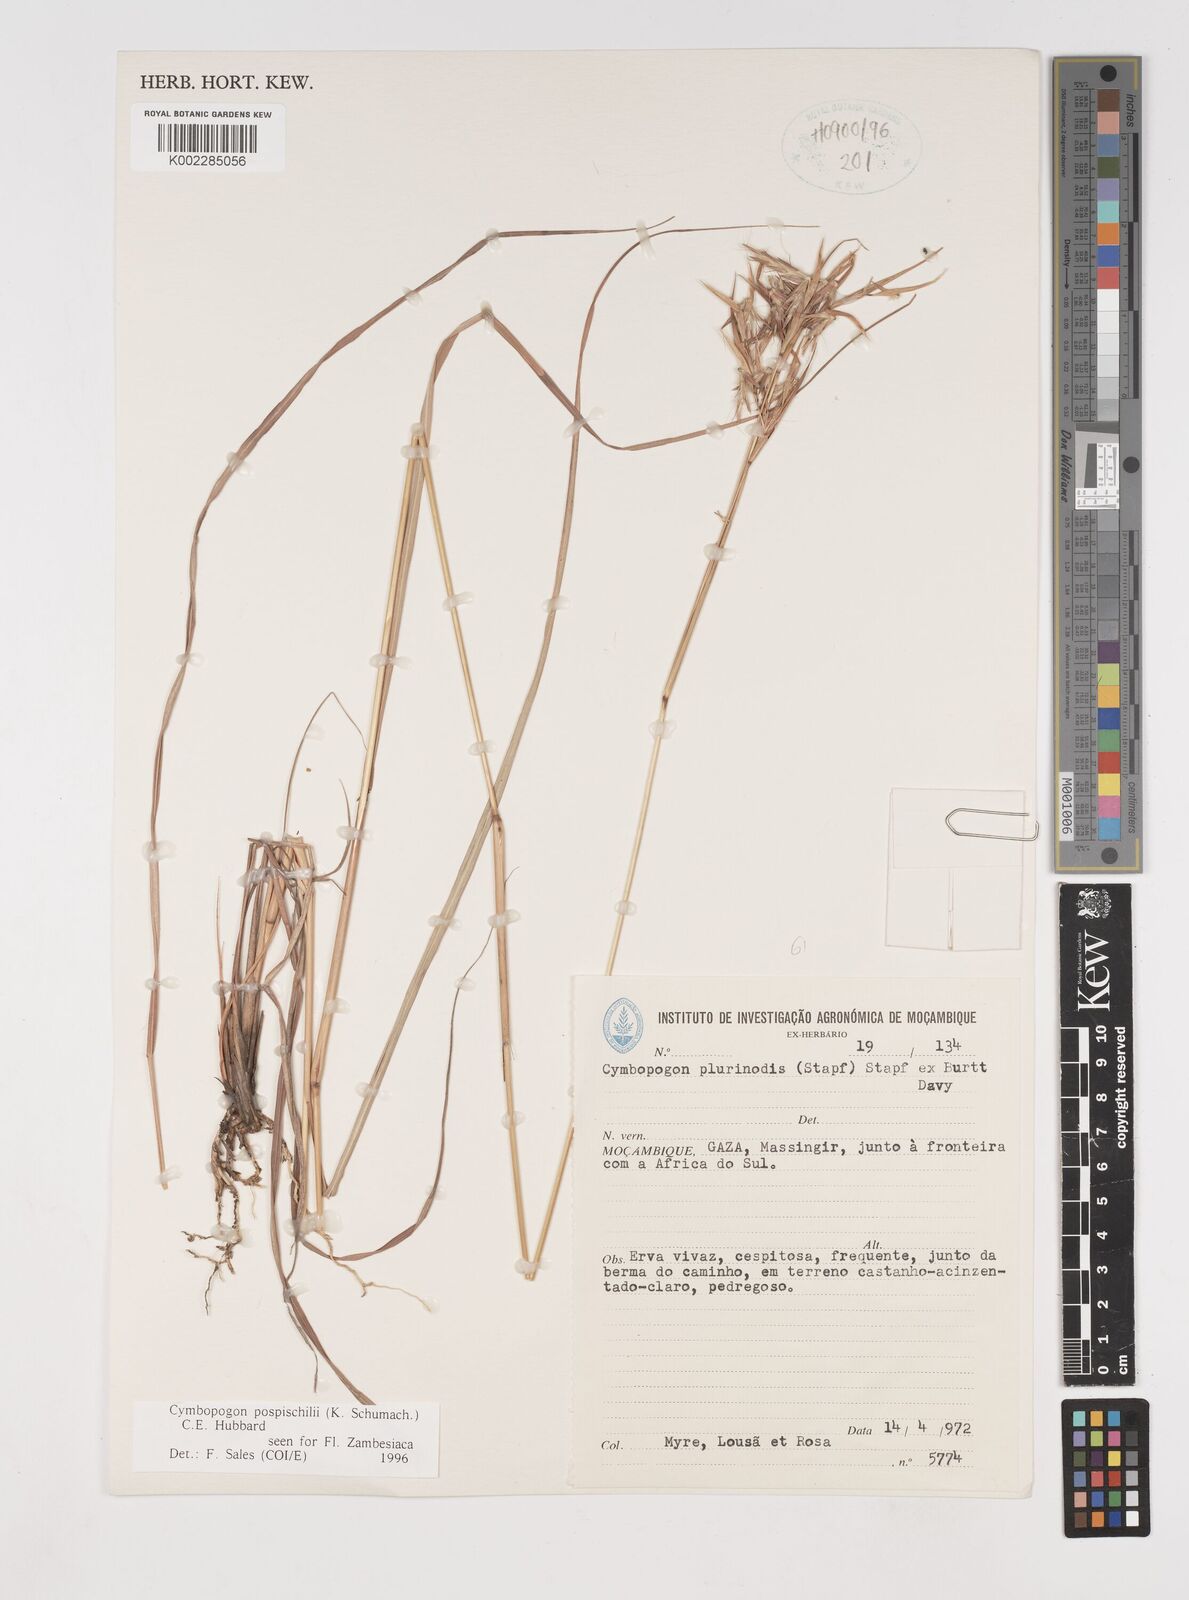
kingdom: Plantae
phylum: Tracheophyta
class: Liliopsida
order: Poales
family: Poaceae
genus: Cymbopogon
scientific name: Cymbopogon pospischilii
